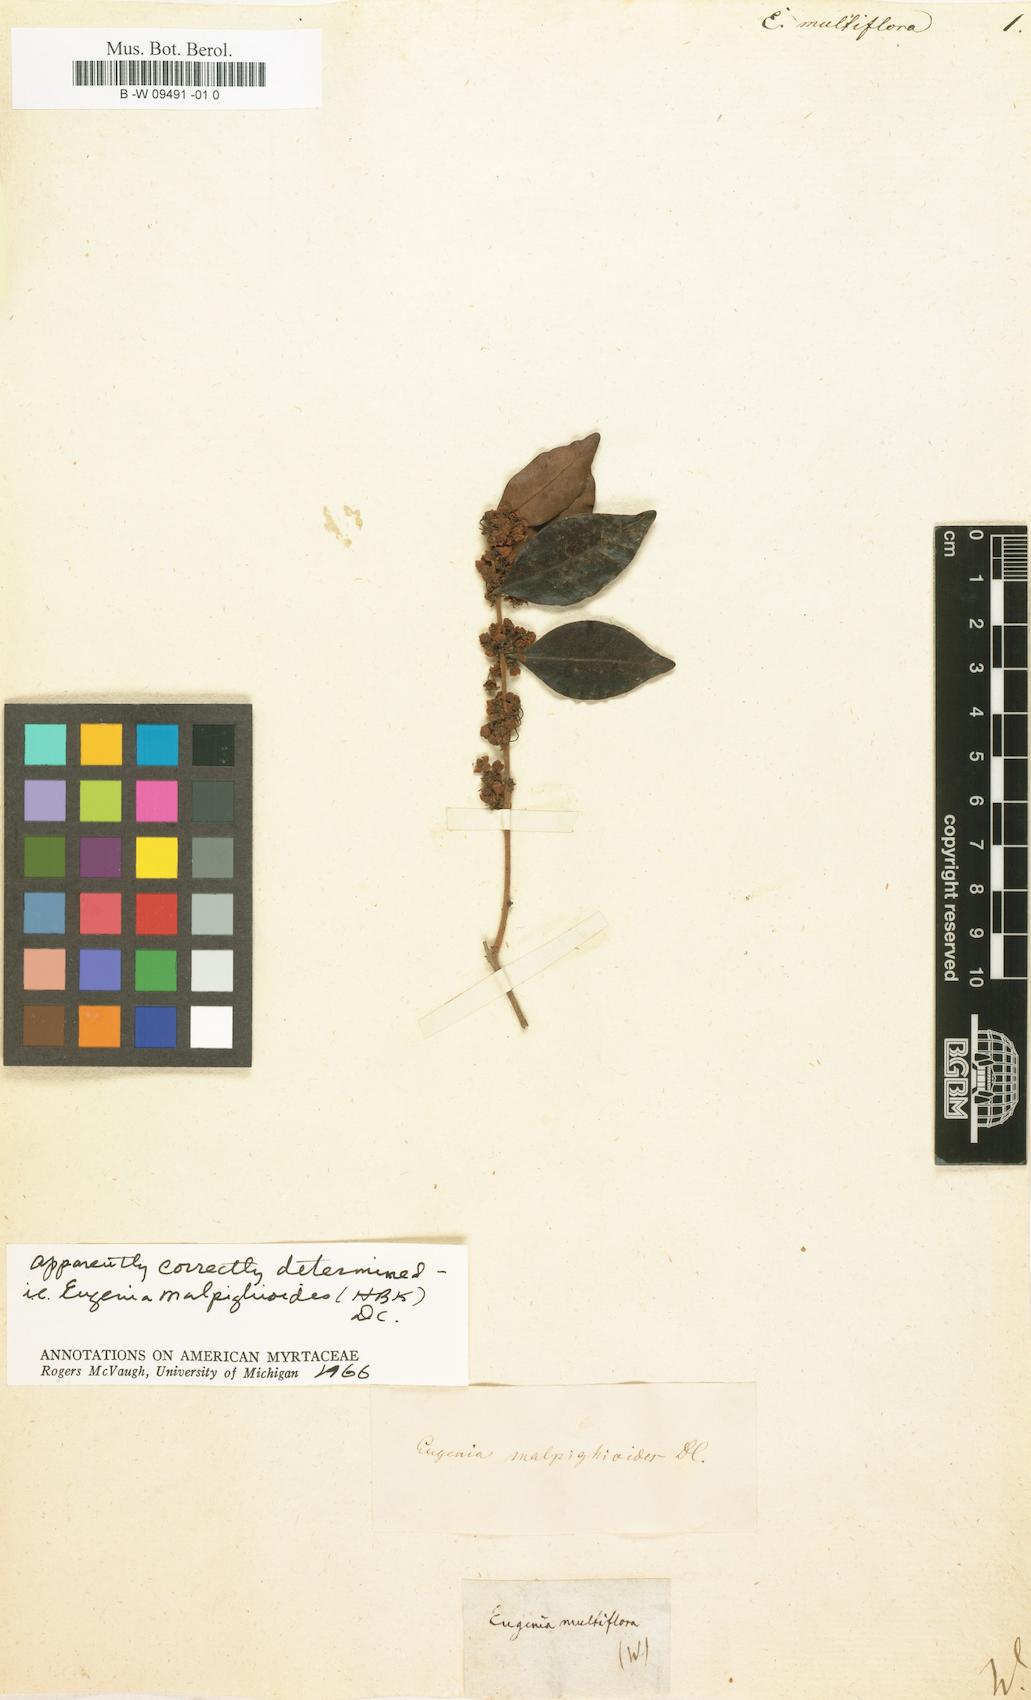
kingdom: Plantae
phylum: Tracheophyta
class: Magnoliopsida
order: Myrtales
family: Myrtaceae
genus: Myrcia
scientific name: Myrcia multiflora
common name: Pedra hume
